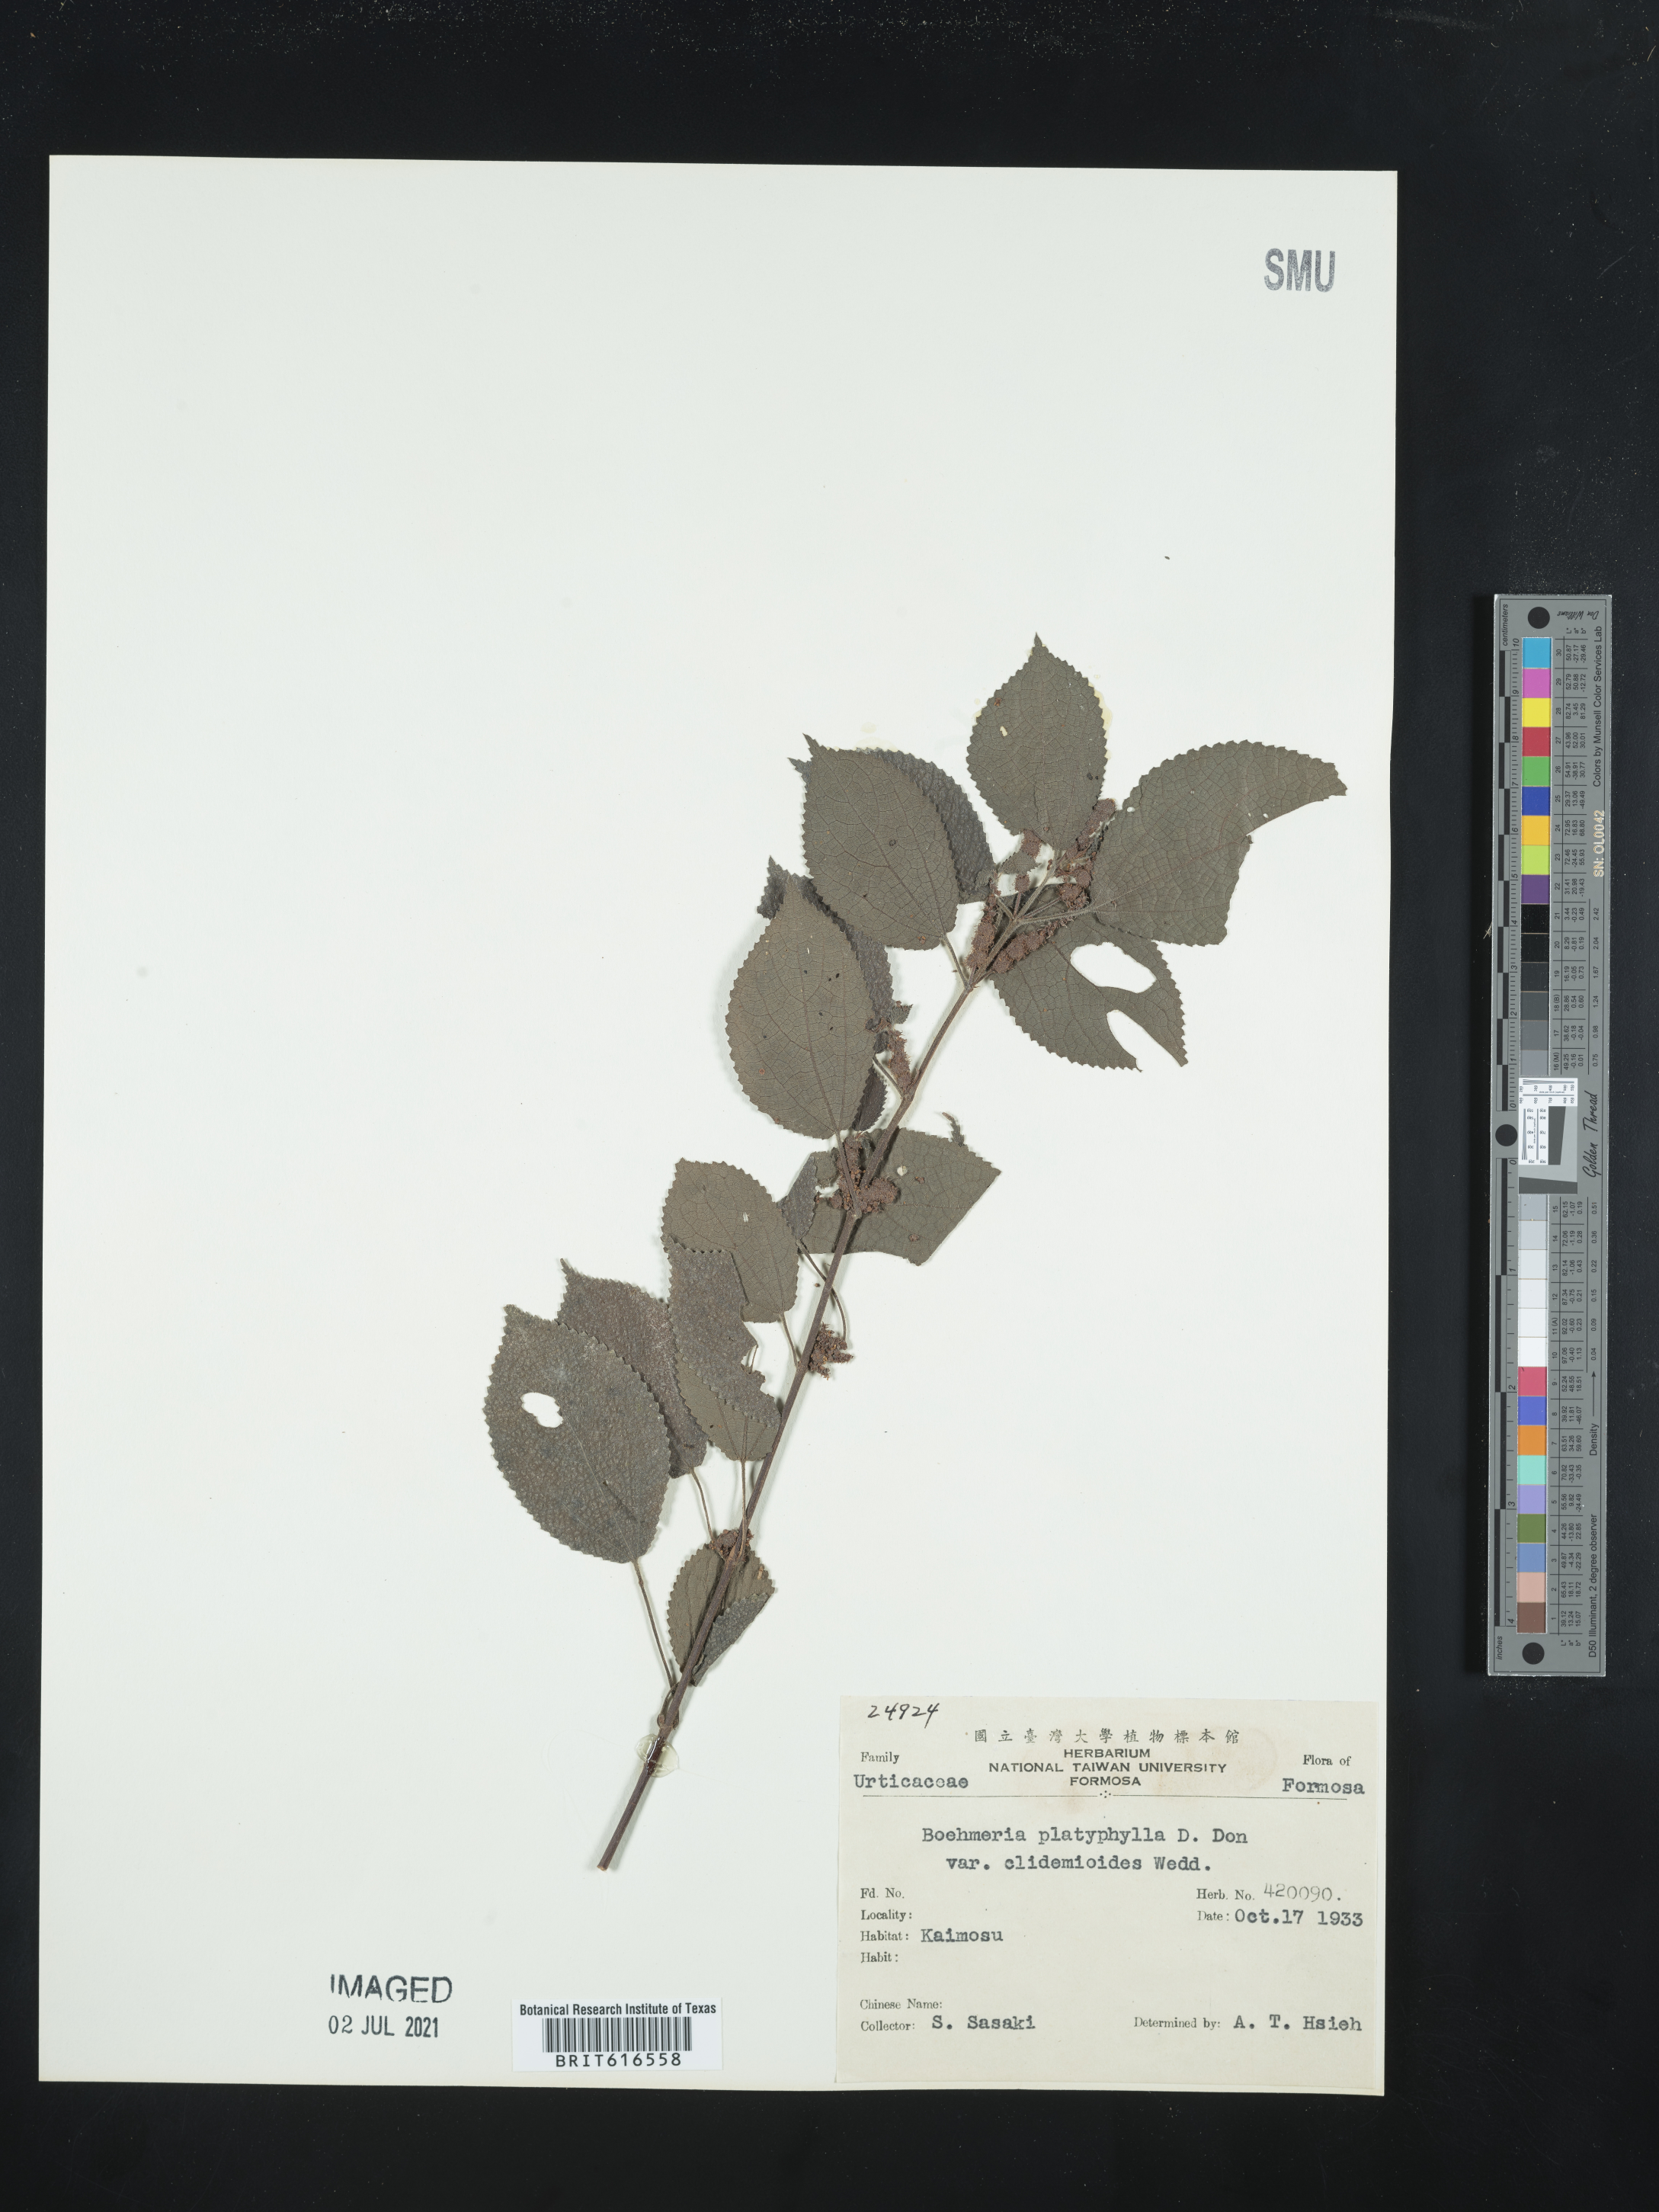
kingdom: Plantae
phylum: Tracheophyta
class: Magnoliopsida
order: Rosales
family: Urticaceae
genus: Boehmeria
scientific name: Boehmeria clidemioides
